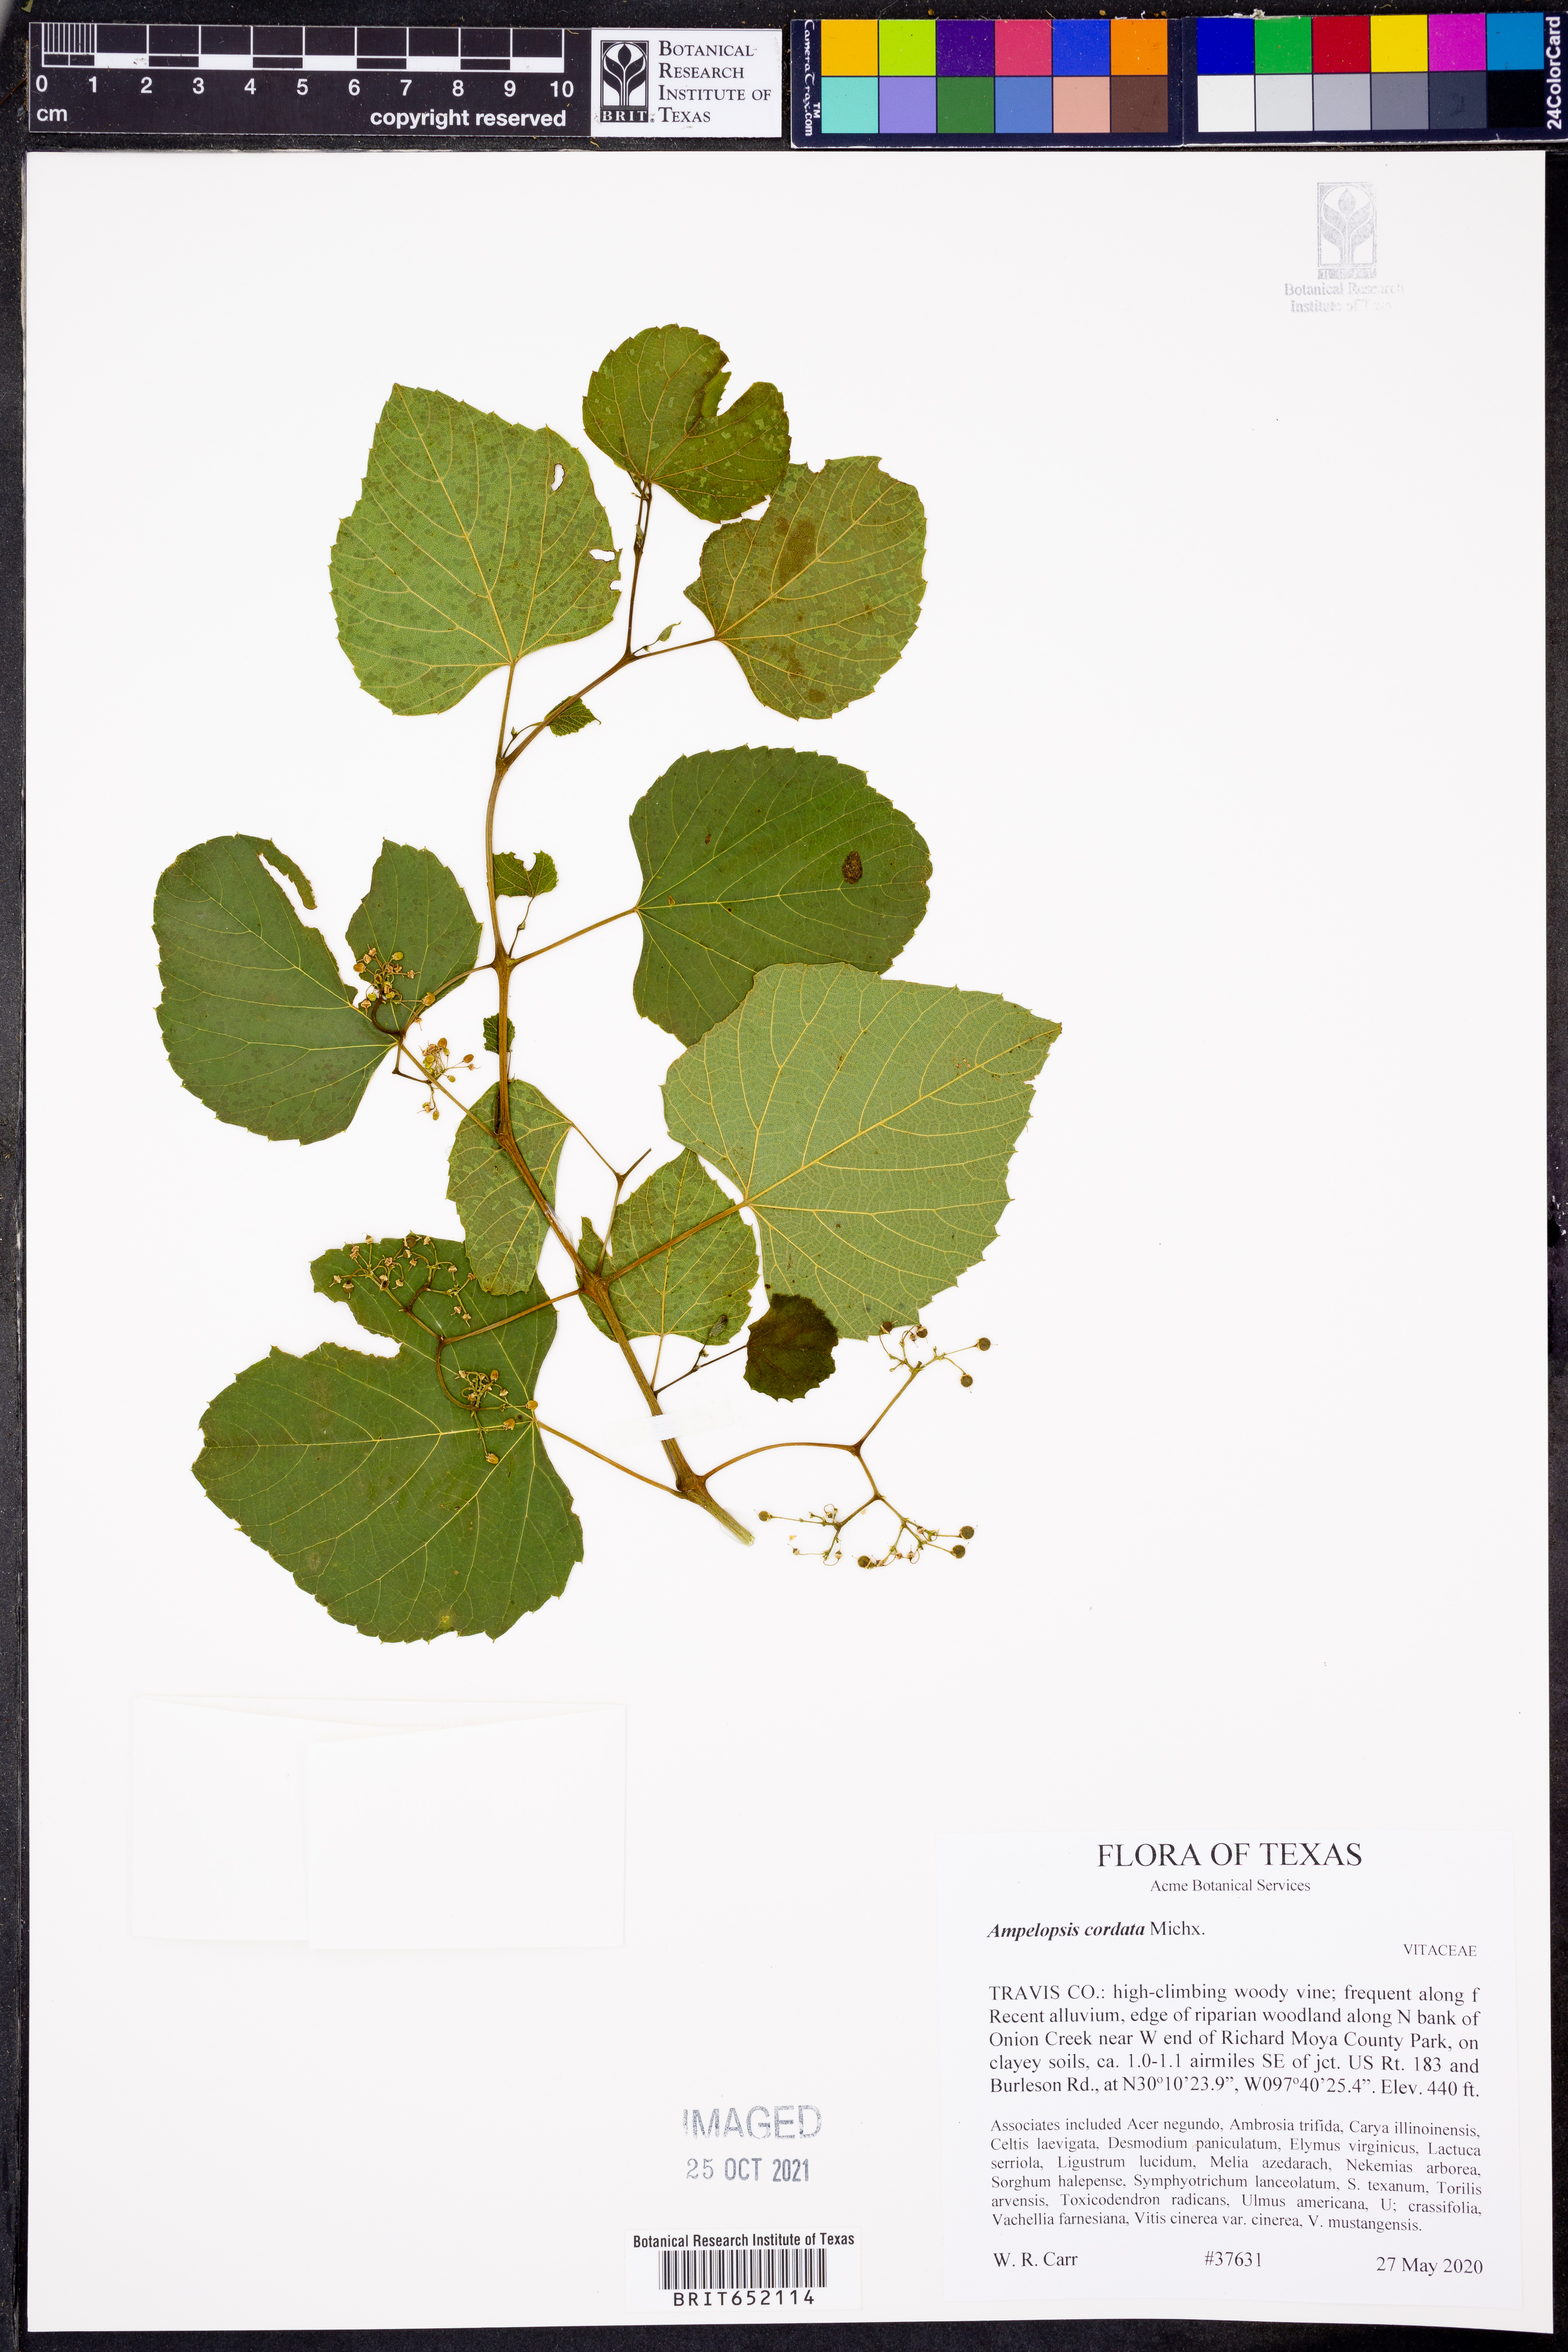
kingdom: Plantae
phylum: Tracheophyta
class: Magnoliopsida
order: Vitales
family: Vitaceae
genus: Ampelopsis
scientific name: Ampelopsis cordata
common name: Heart-leaf ampelopsis
